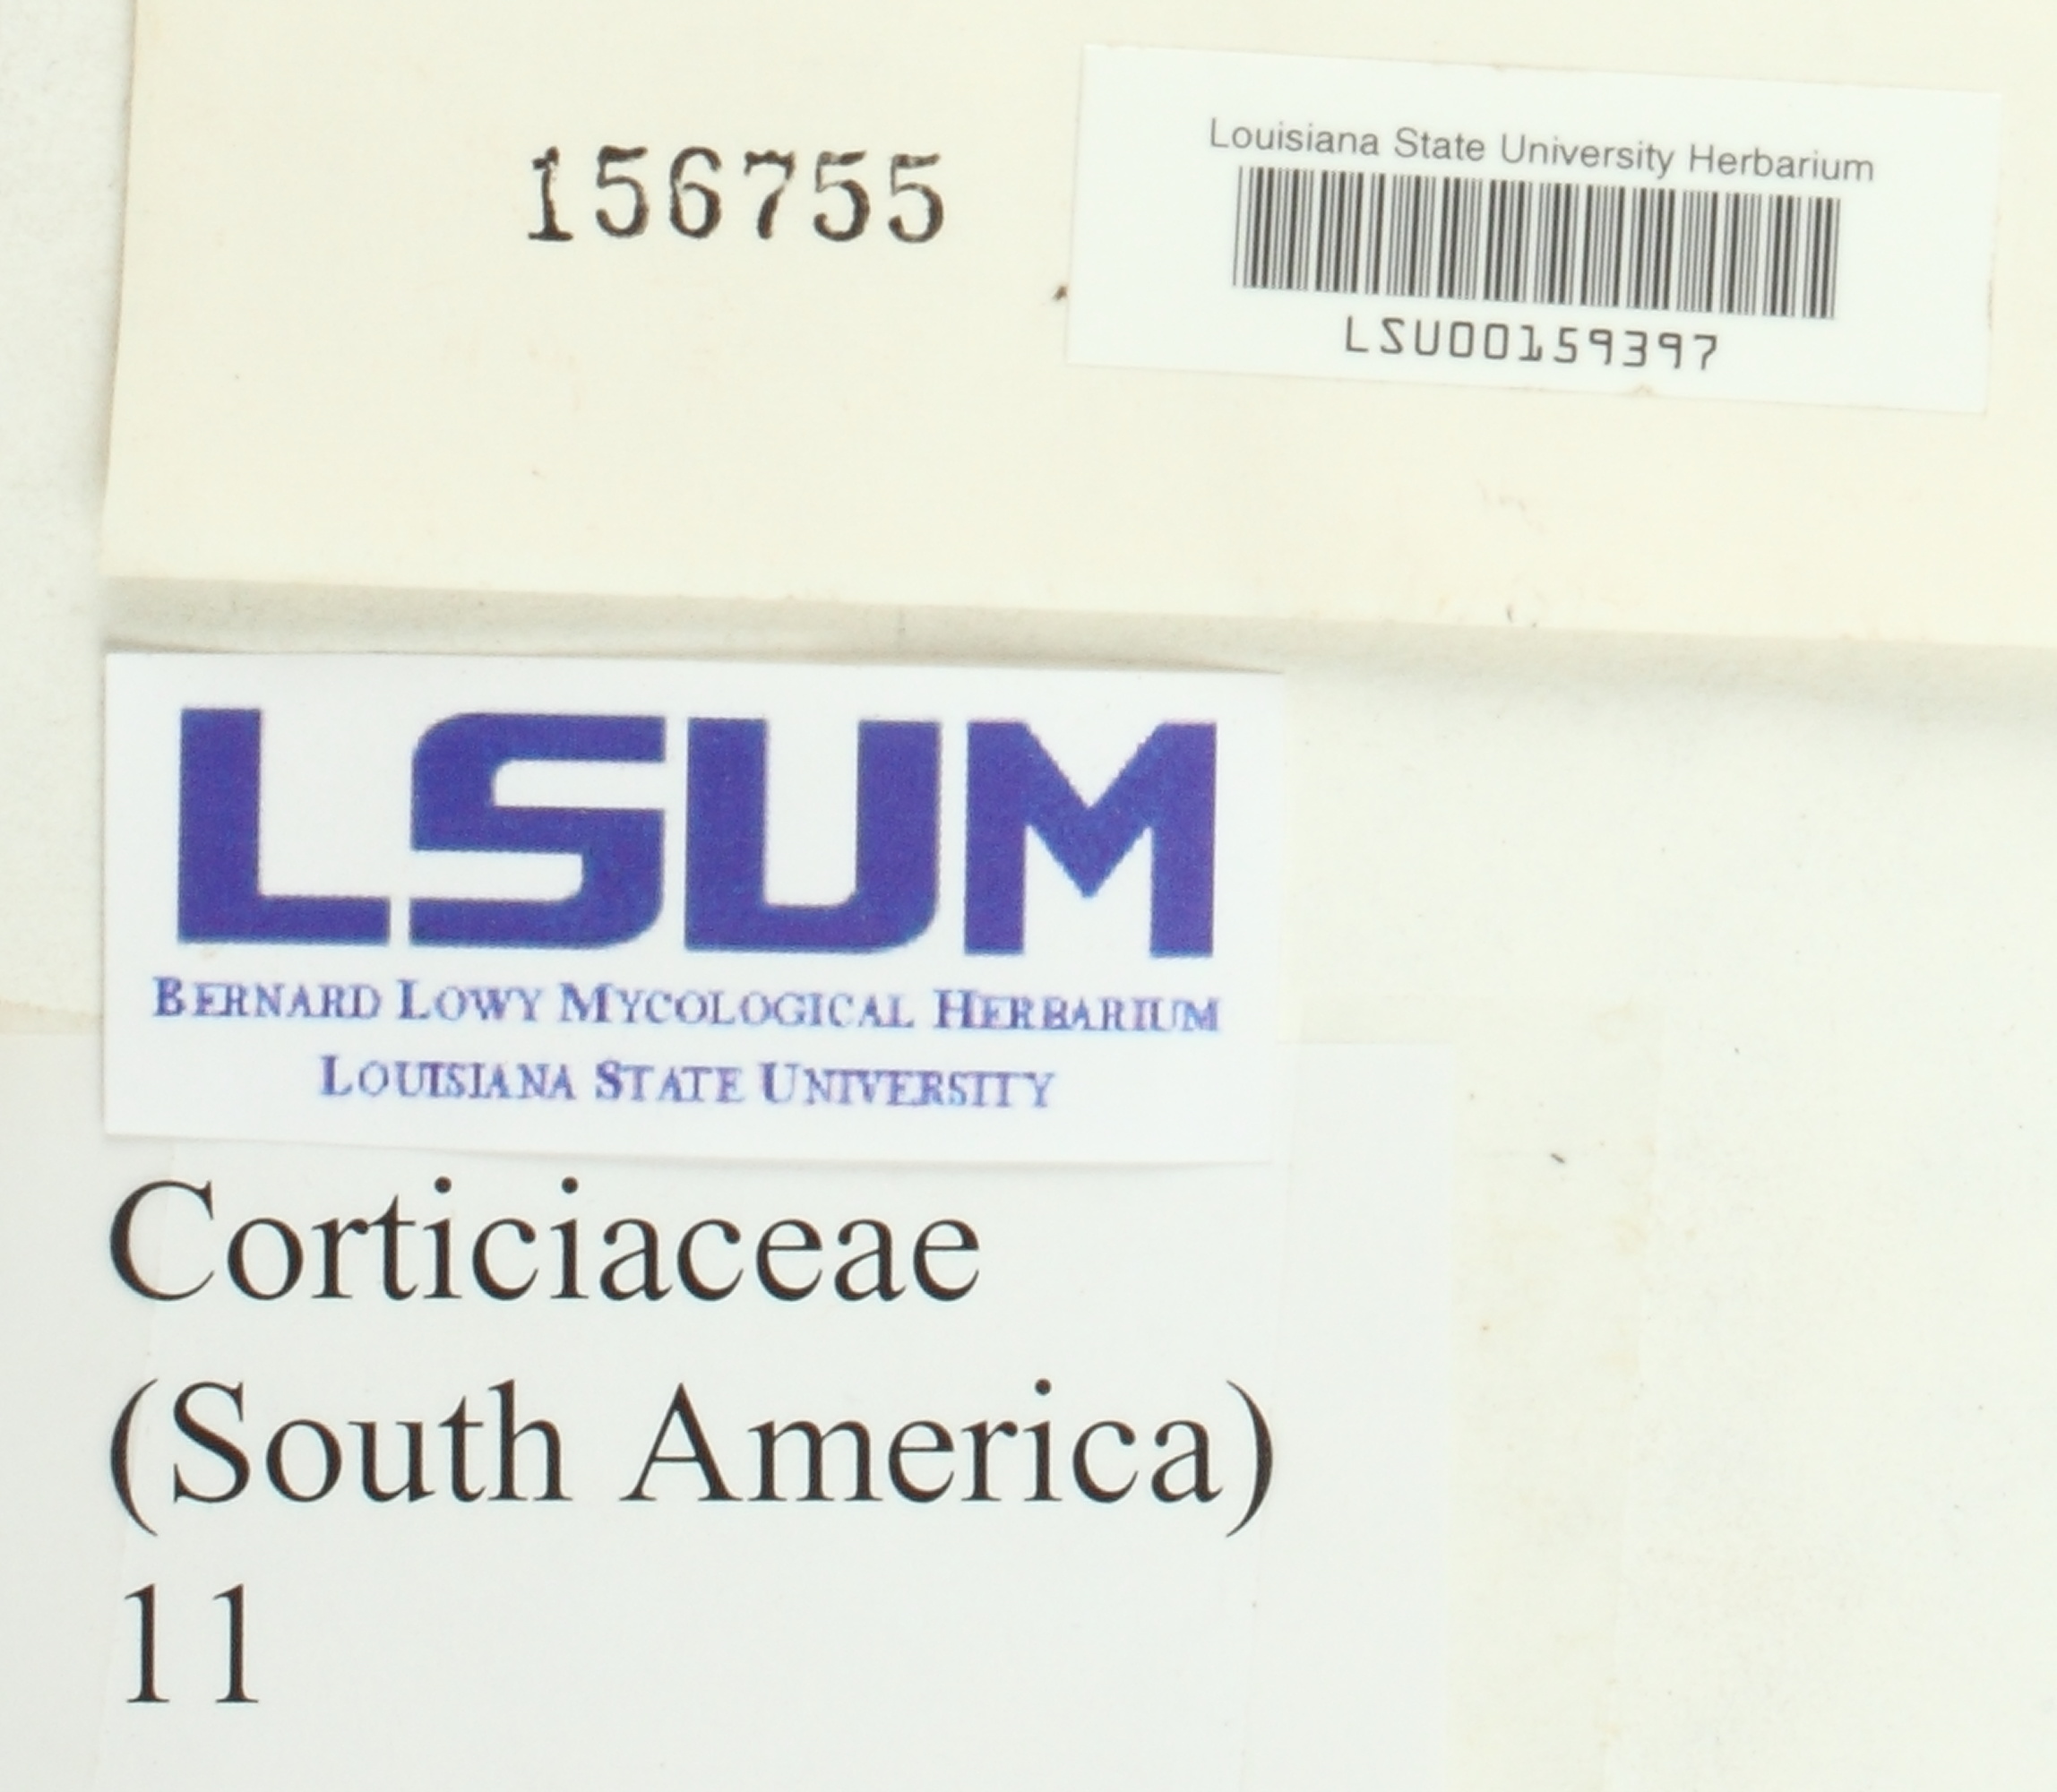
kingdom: Fungi
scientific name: Fungi
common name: Fungi
